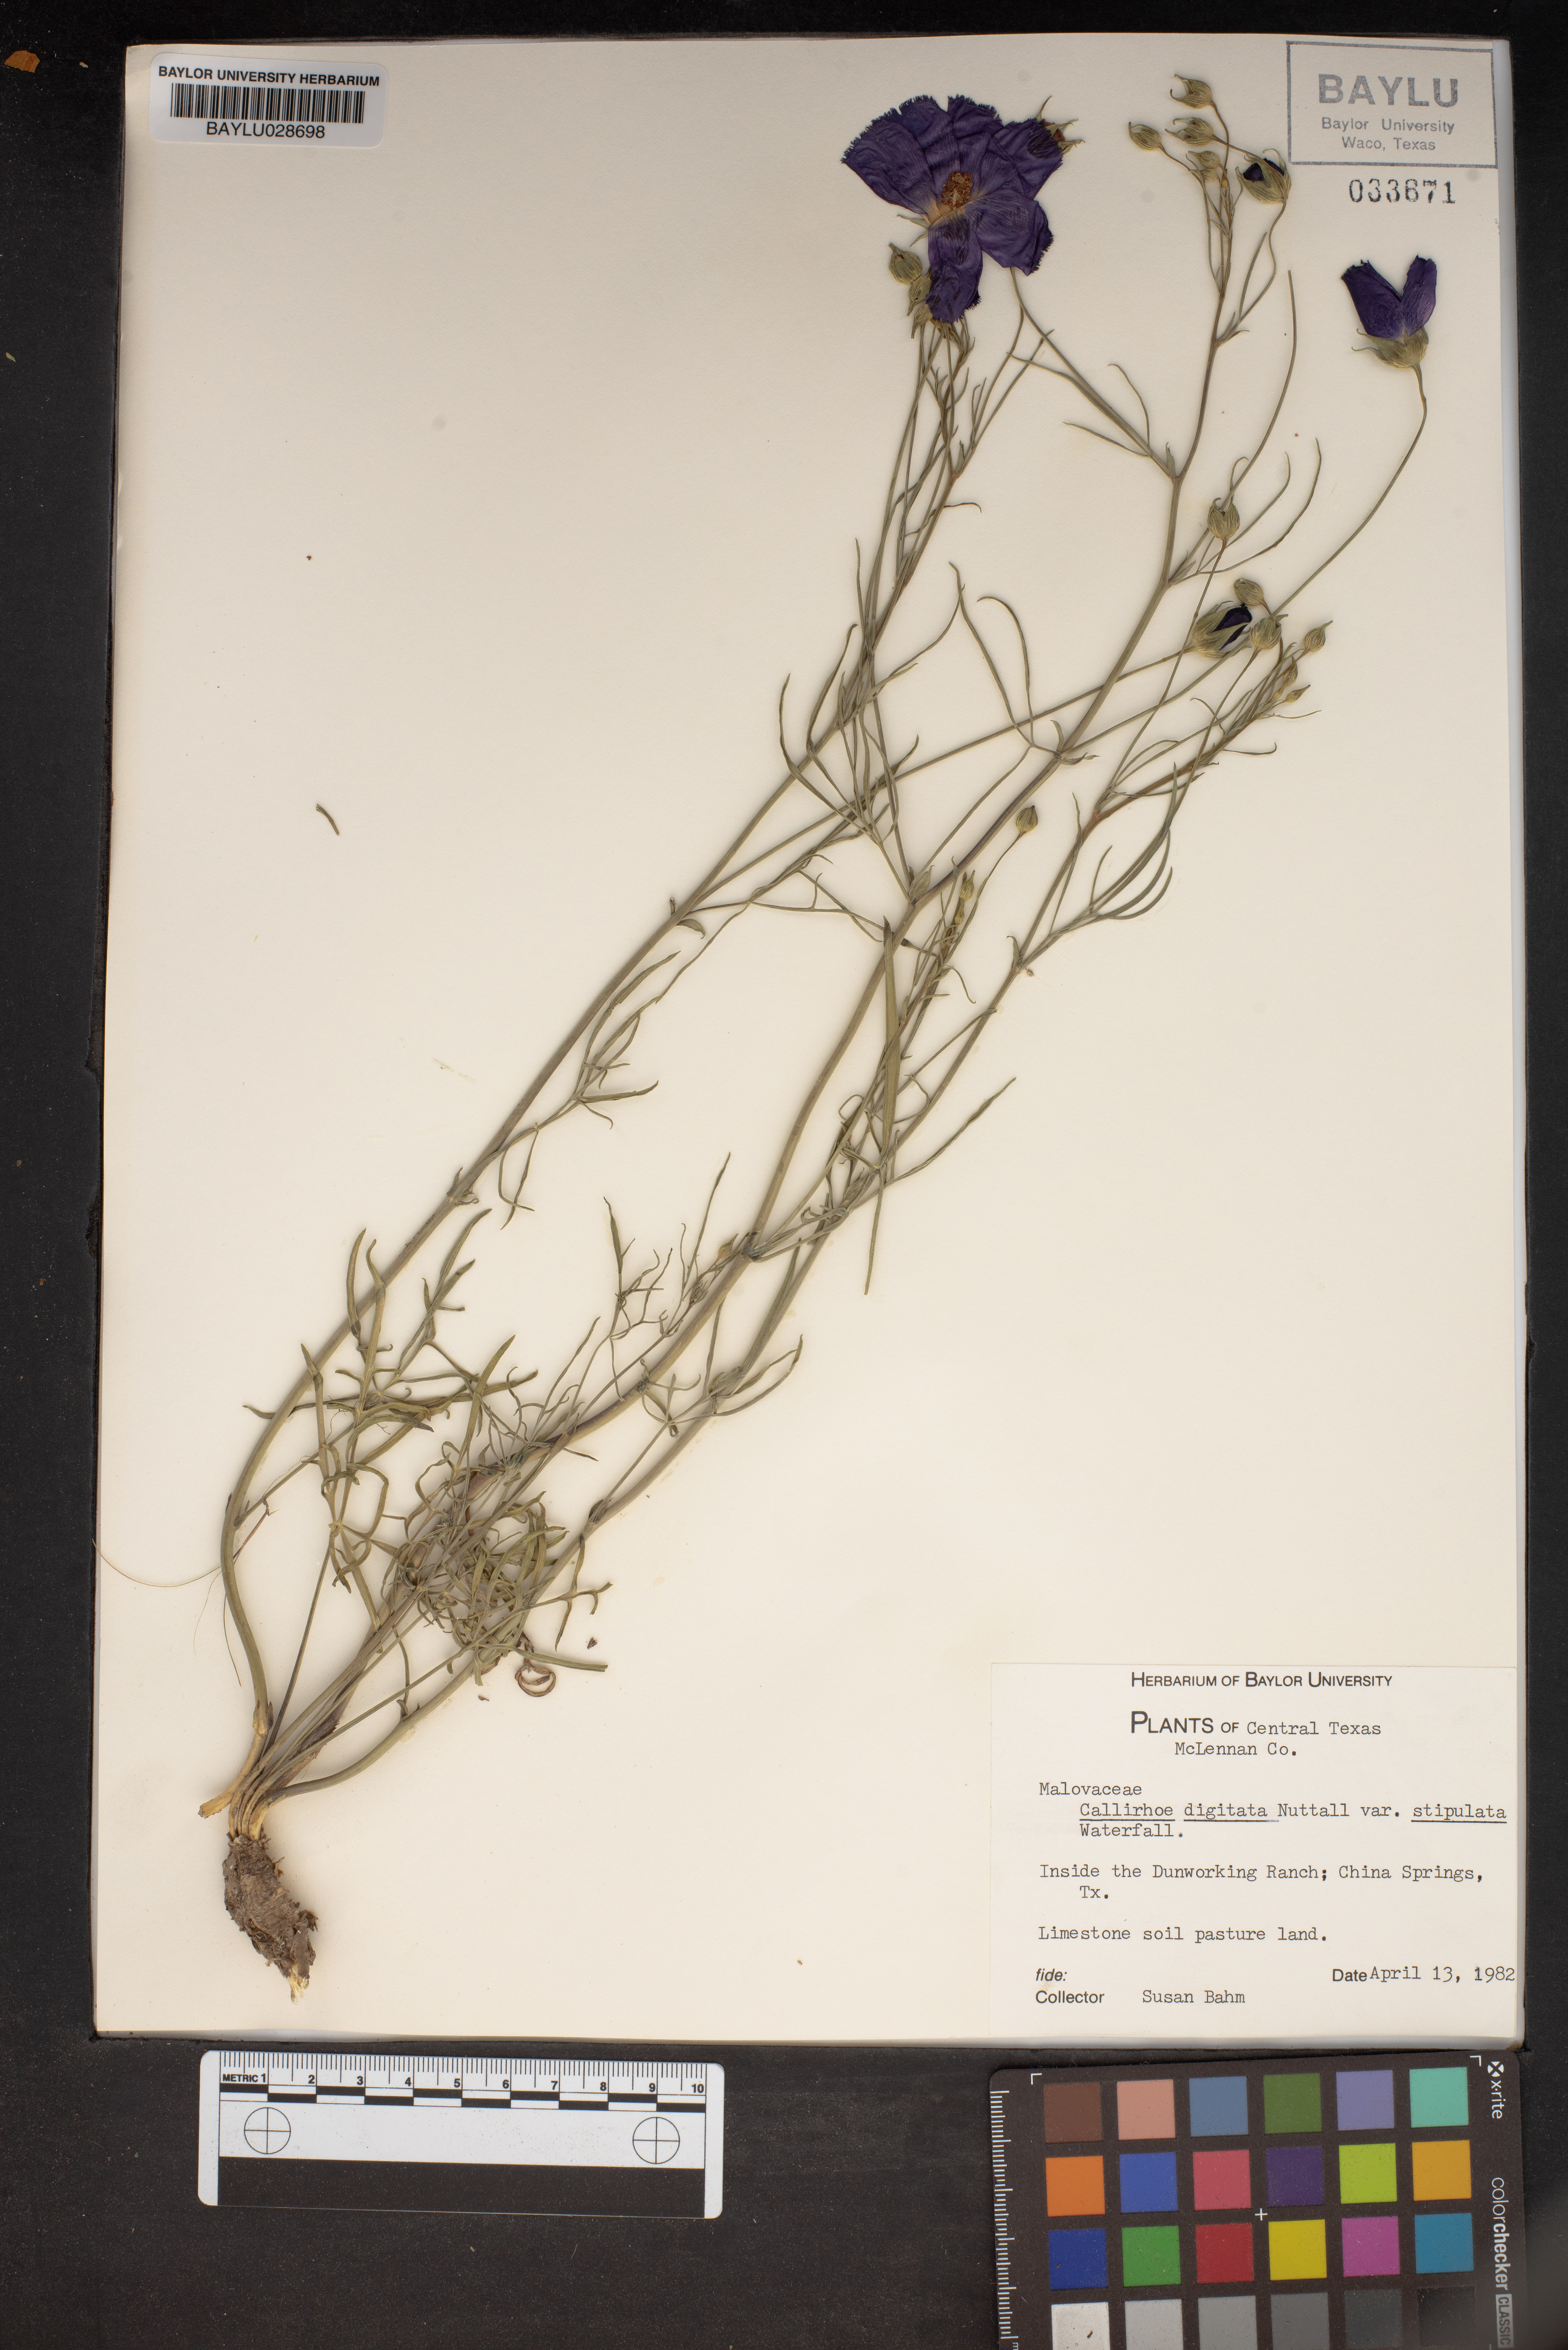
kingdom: Plantae
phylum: Tracheophyta
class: Magnoliopsida
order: Malvales
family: Malvaceae
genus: Callirhoe
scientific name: Callirhoe pedata
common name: Finger poppy-mallow
